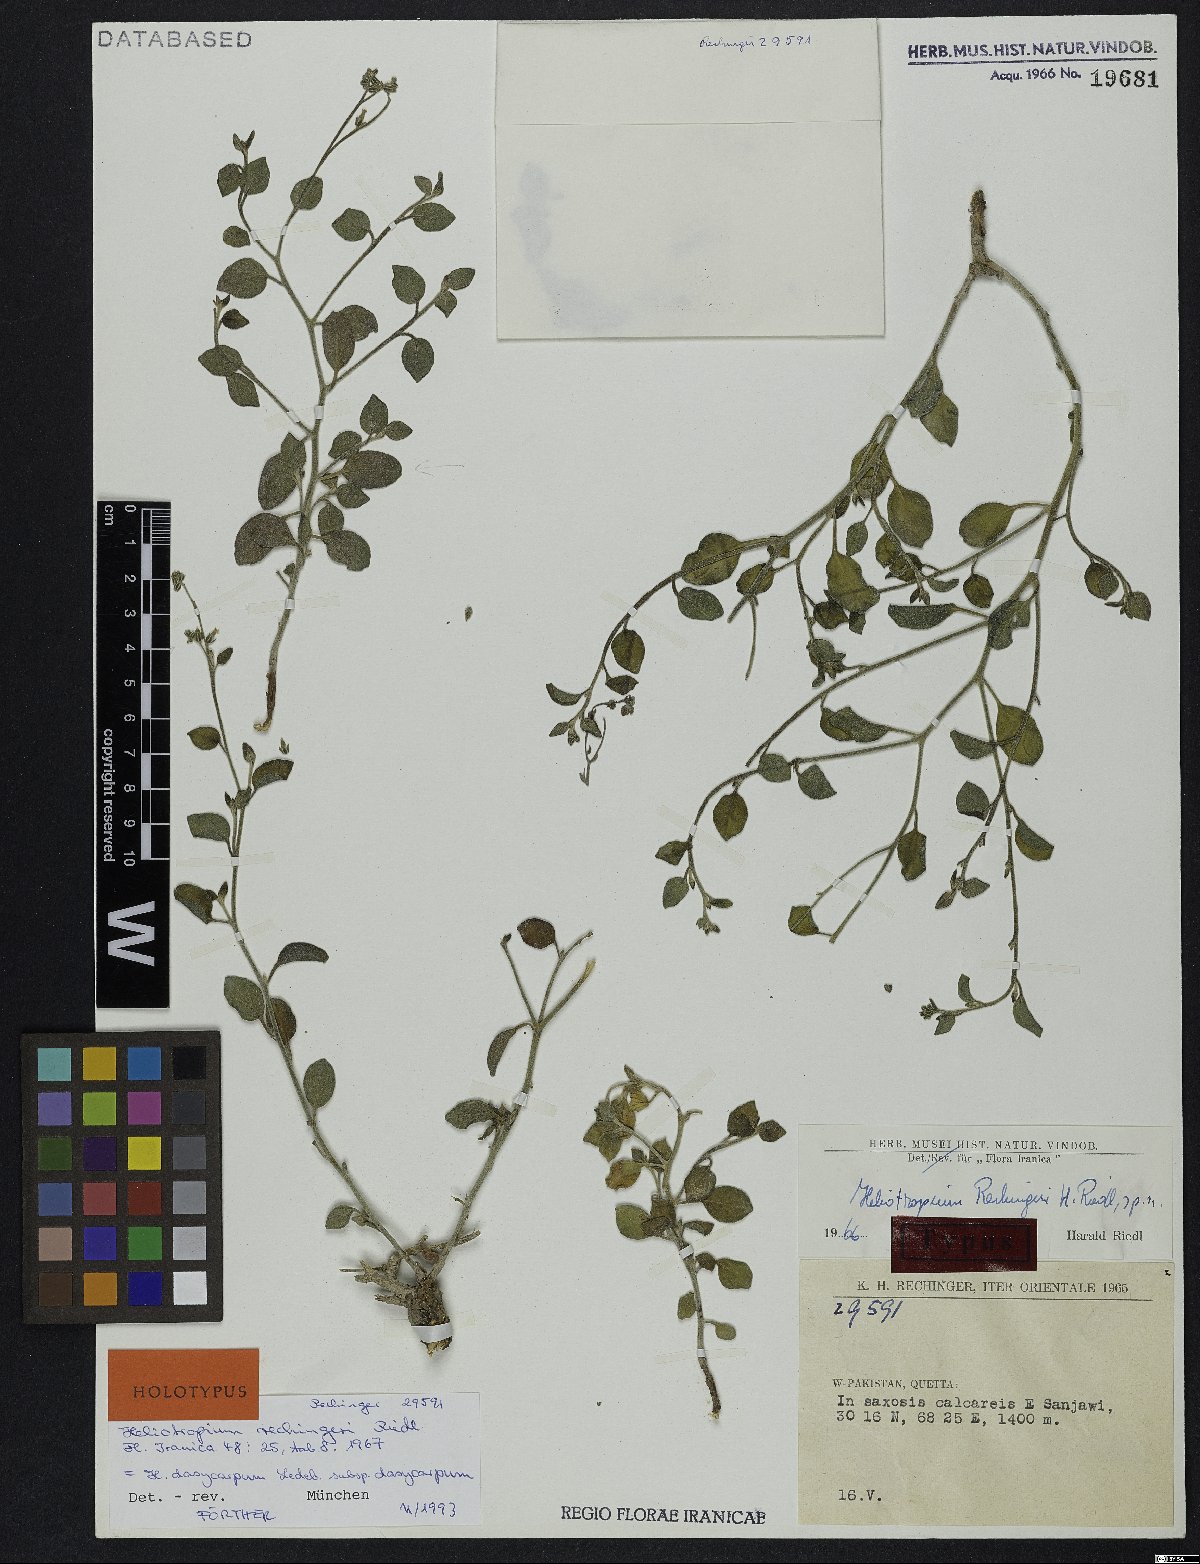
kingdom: Plantae
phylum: Tracheophyta
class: Magnoliopsida
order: Boraginales
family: Heliotropiaceae
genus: Heliotropium
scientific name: Heliotropium dasycarpum
